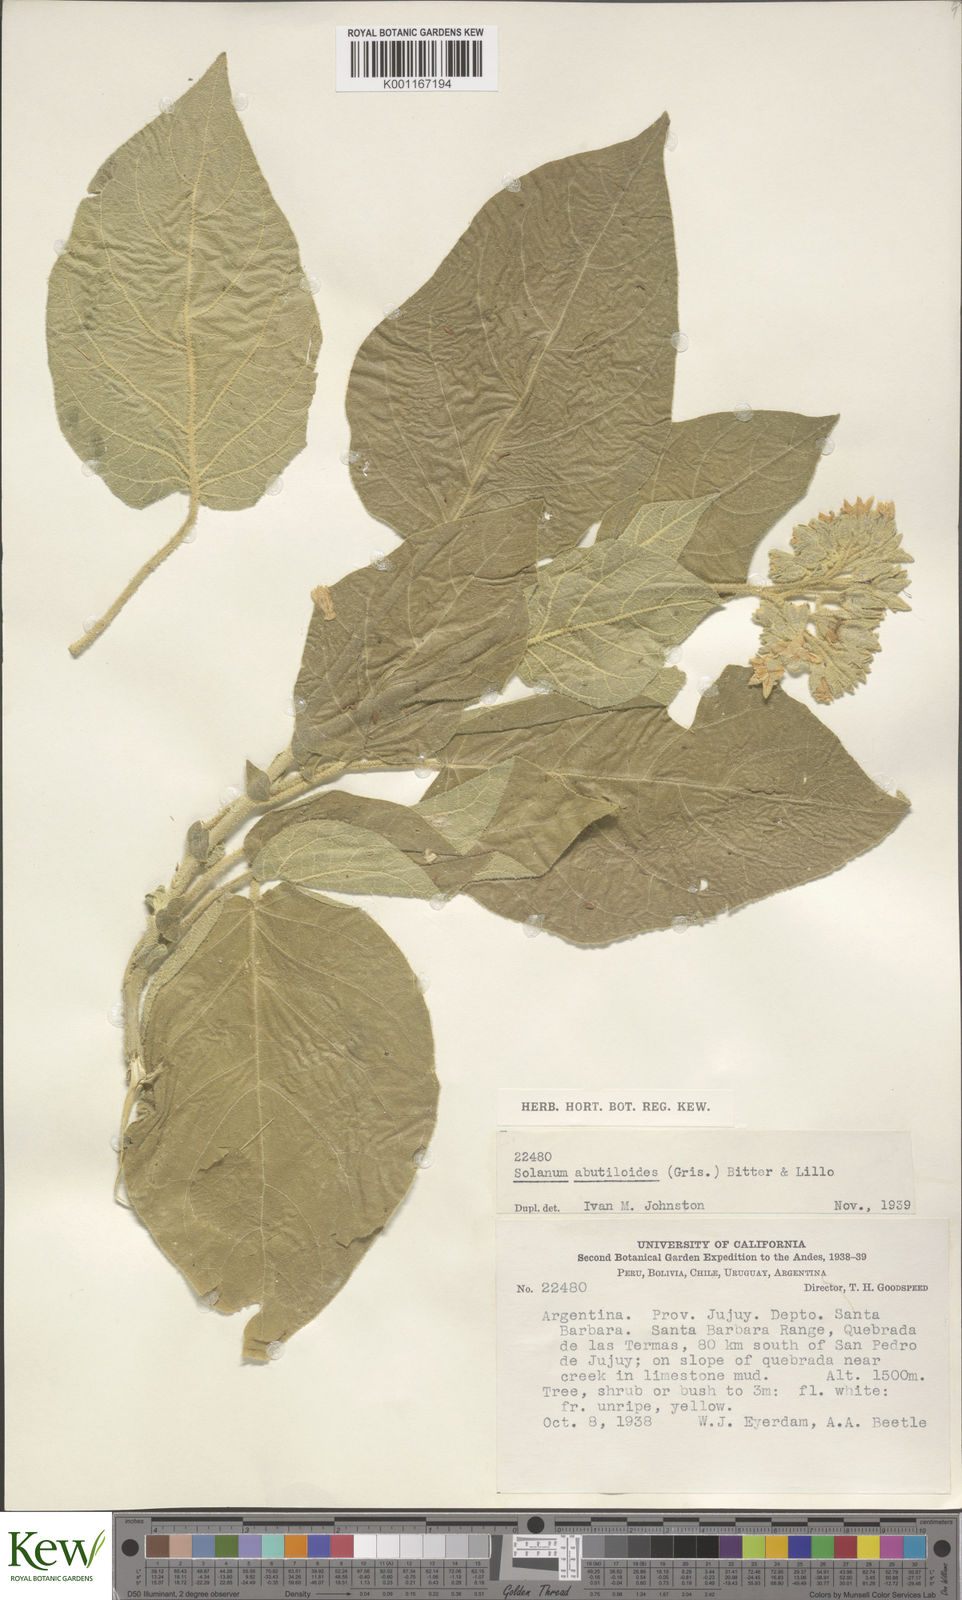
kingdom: Plantae
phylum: Tracheophyta
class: Magnoliopsida
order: Solanales
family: Solanaceae
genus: Solanum
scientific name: Solanum abutiloides
